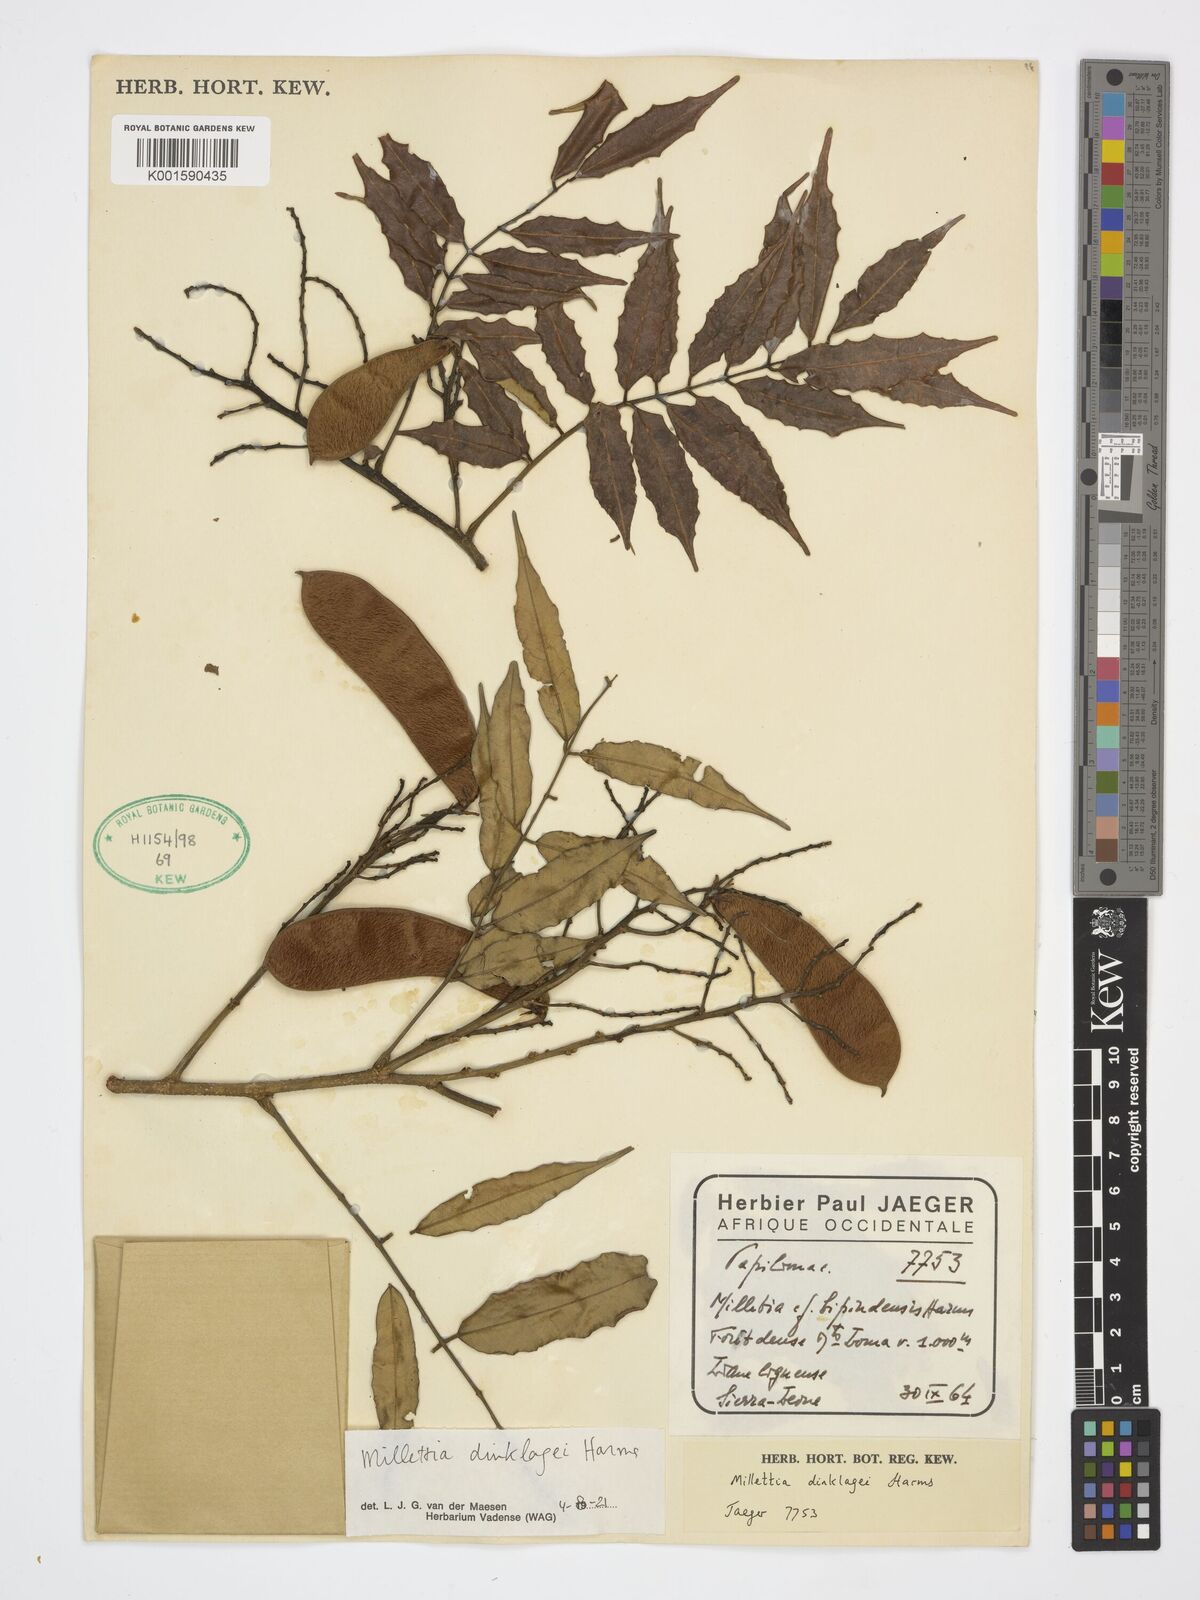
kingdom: Plantae
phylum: Tracheophyta
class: Magnoliopsida
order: Fabales
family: Fabaceae
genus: Millettia
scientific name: Millettia dinklagei
